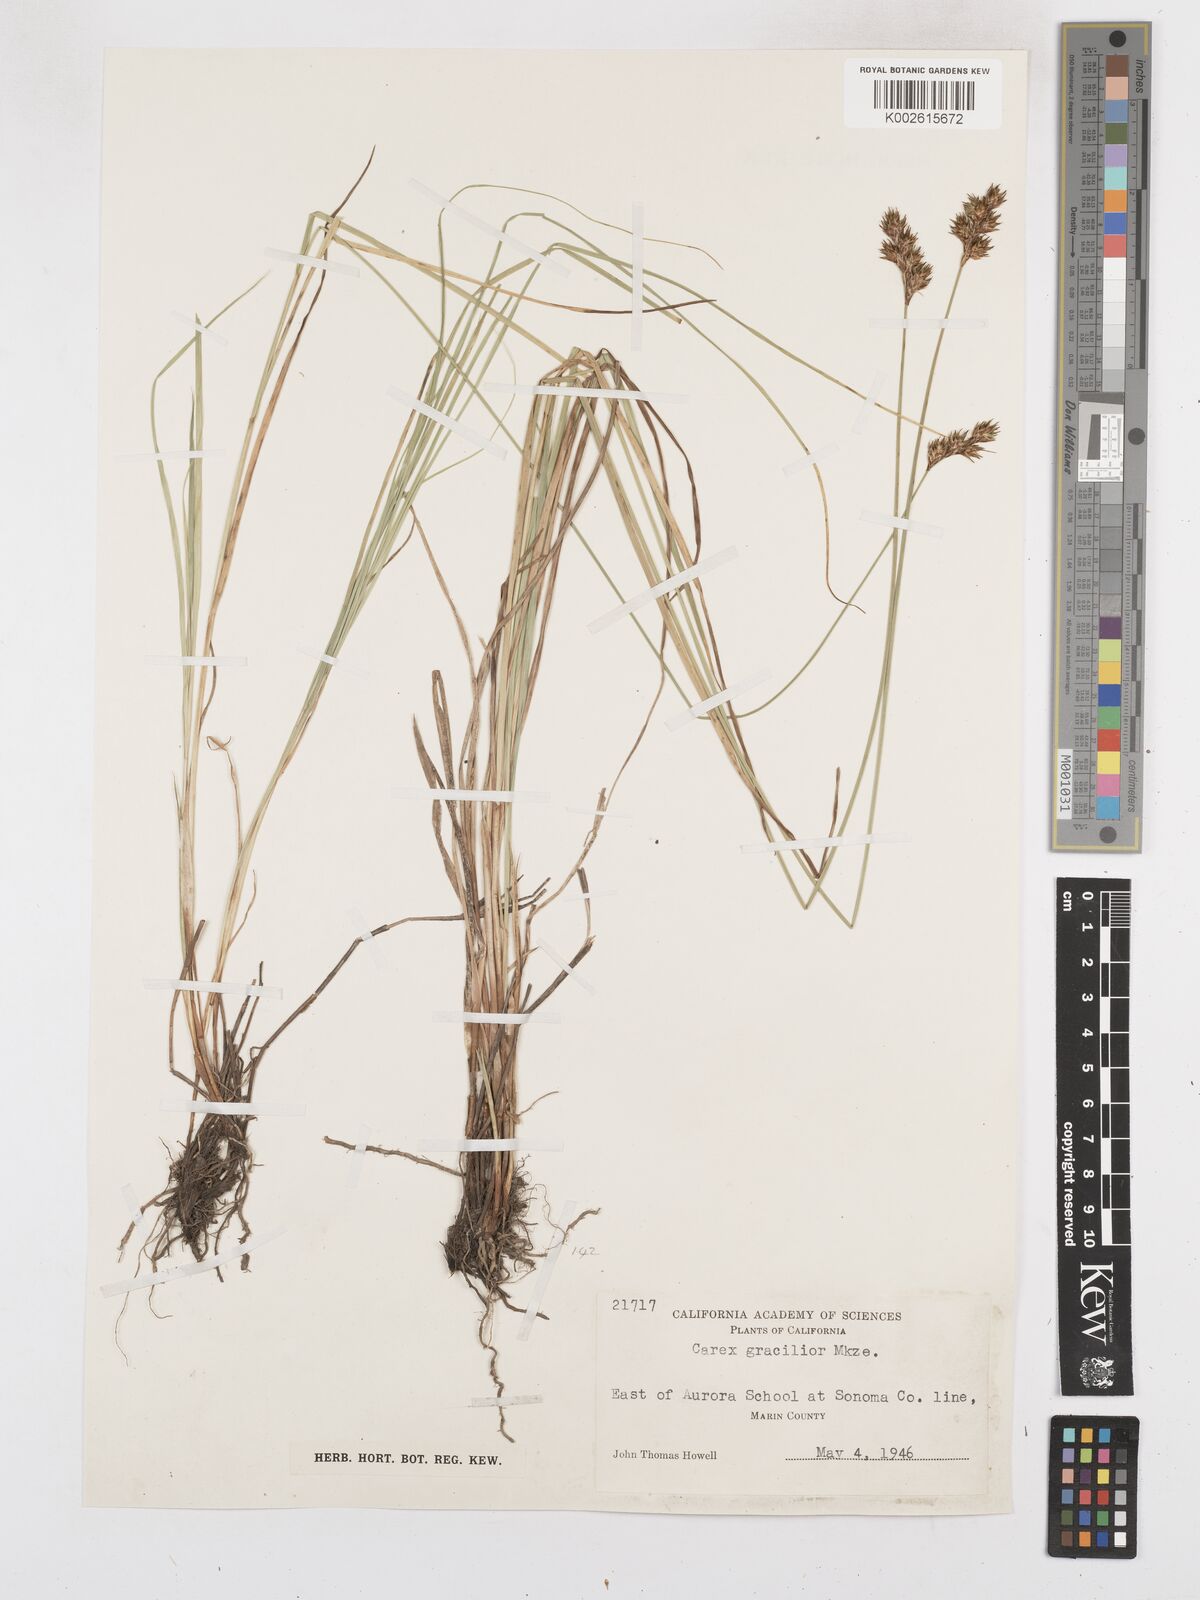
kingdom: Plantae
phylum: Tracheophyta
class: Liliopsida
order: Poales
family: Cyperaceae
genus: Carex
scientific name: Carex gracilior
